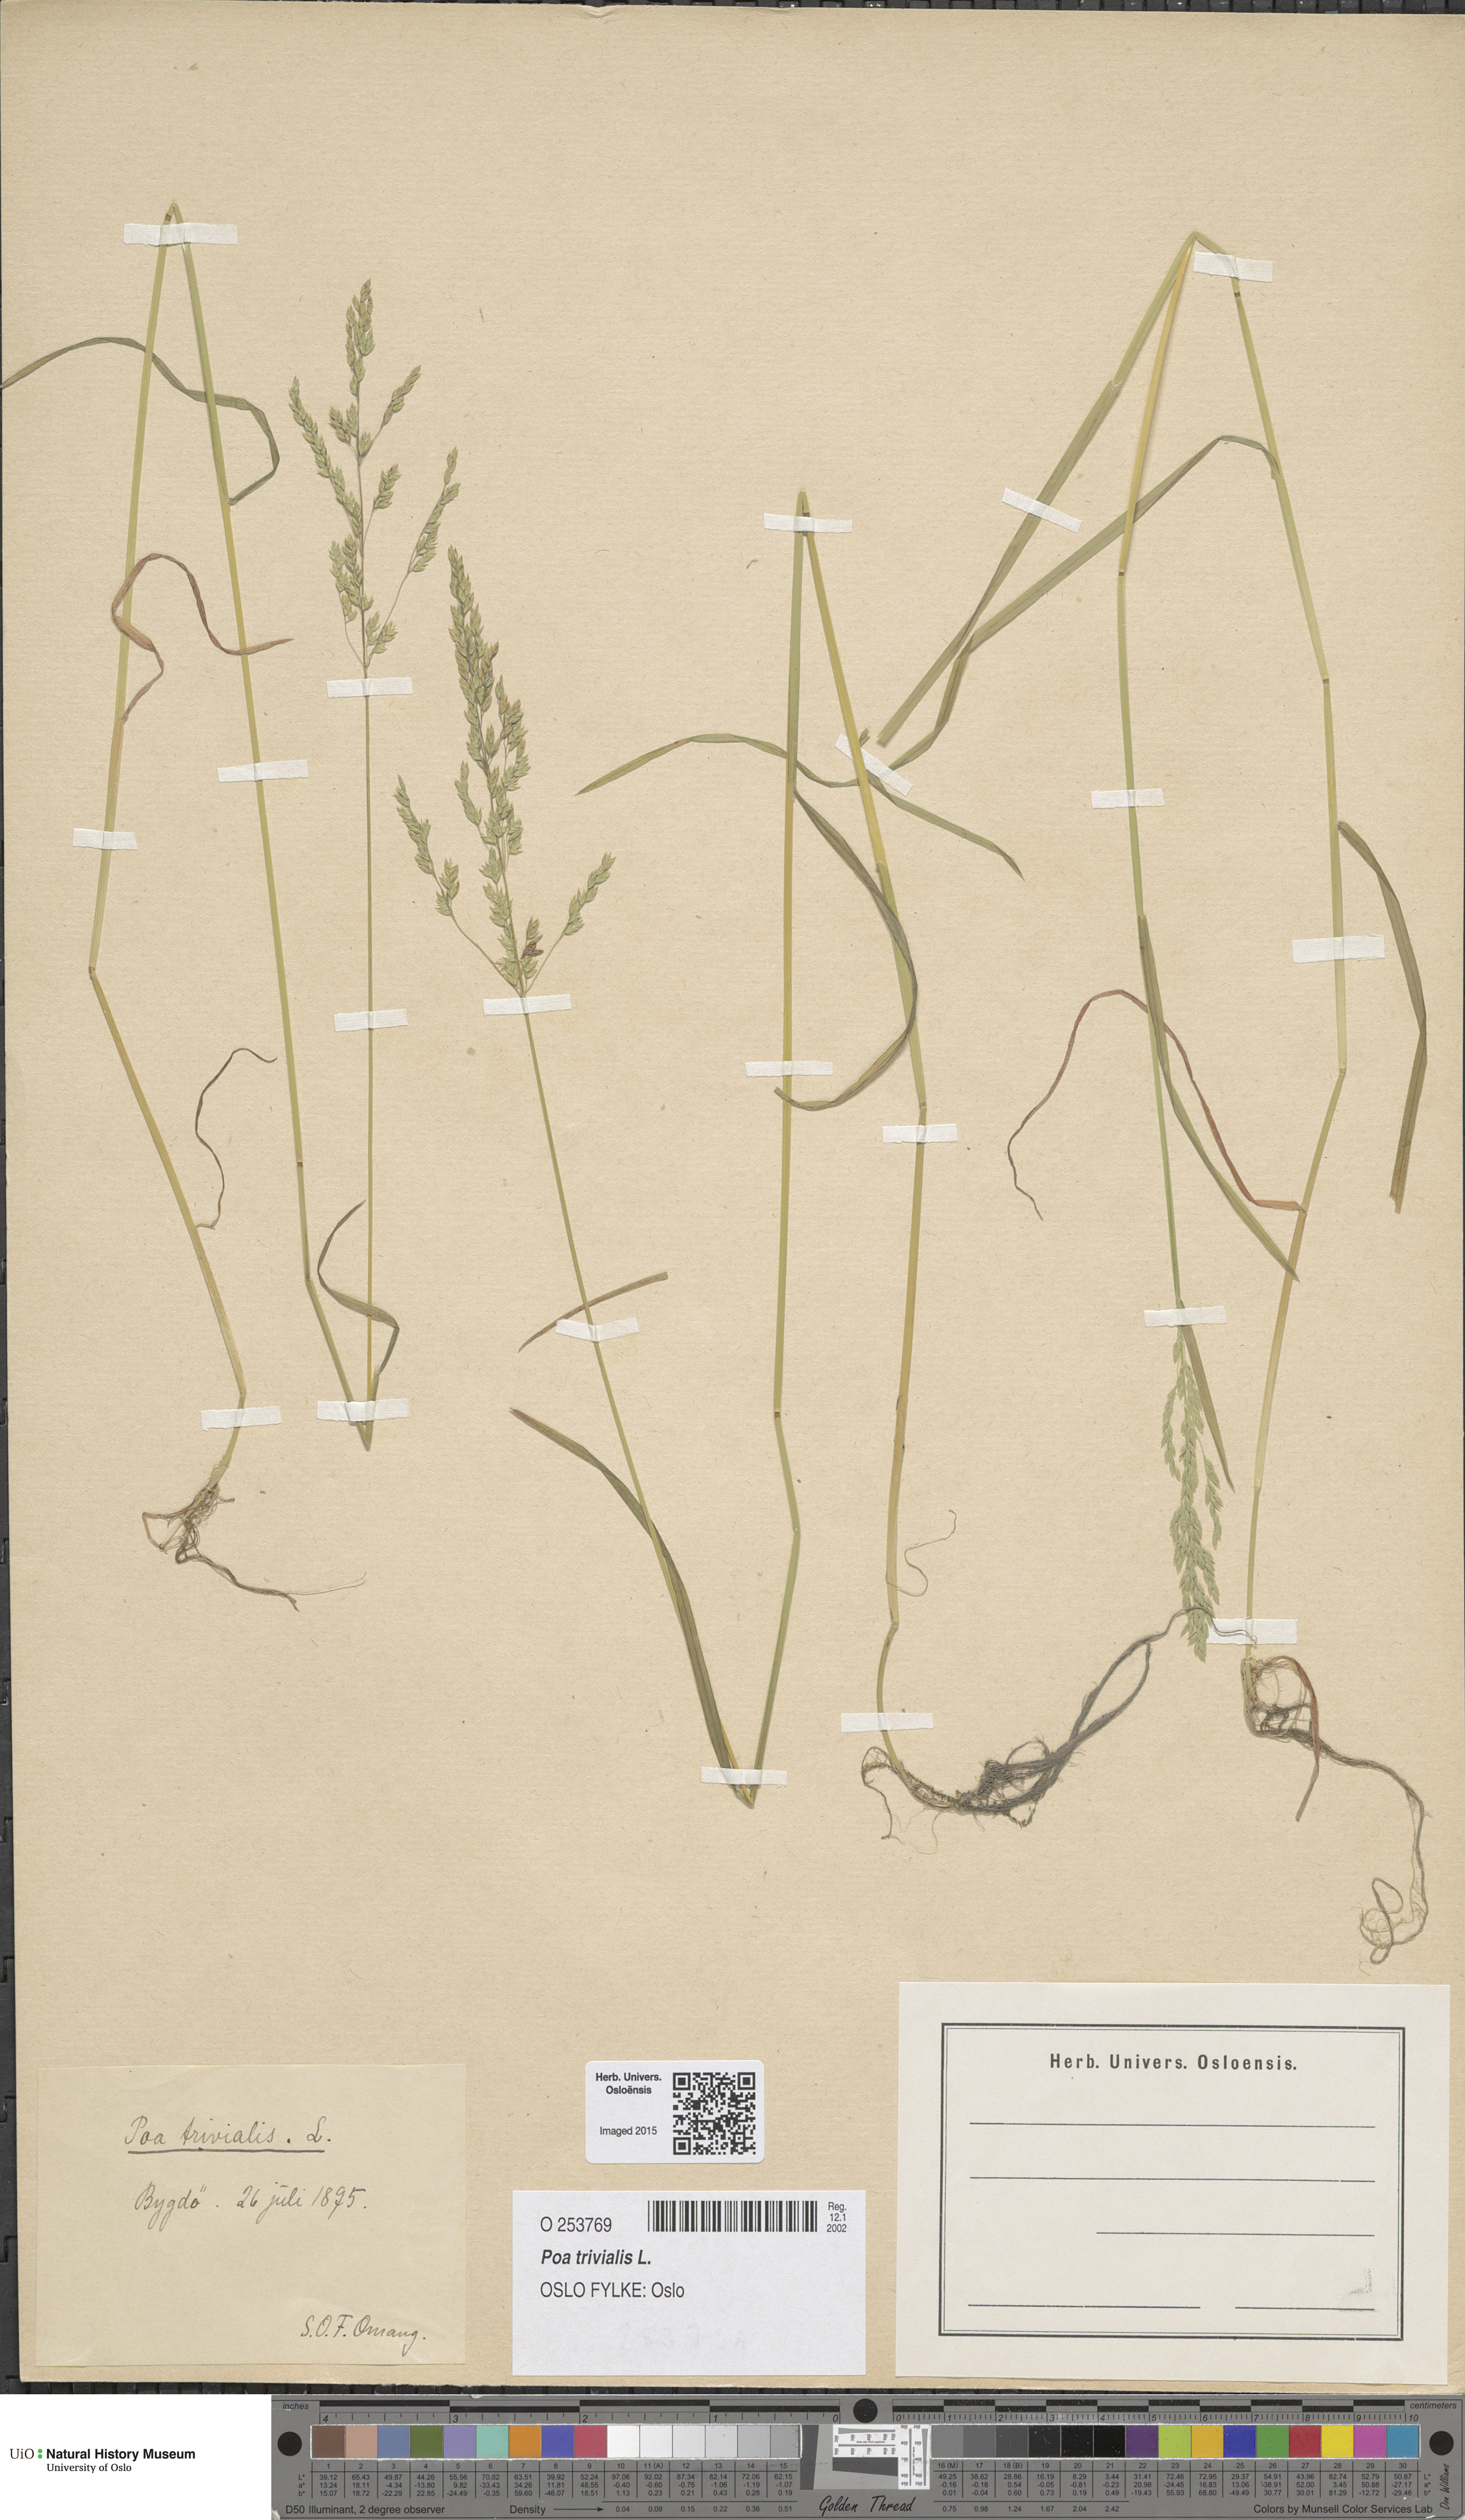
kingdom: Plantae
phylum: Tracheophyta
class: Liliopsida
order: Poales
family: Poaceae
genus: Poa
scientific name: Poa trivialis
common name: Rough bluegrass
